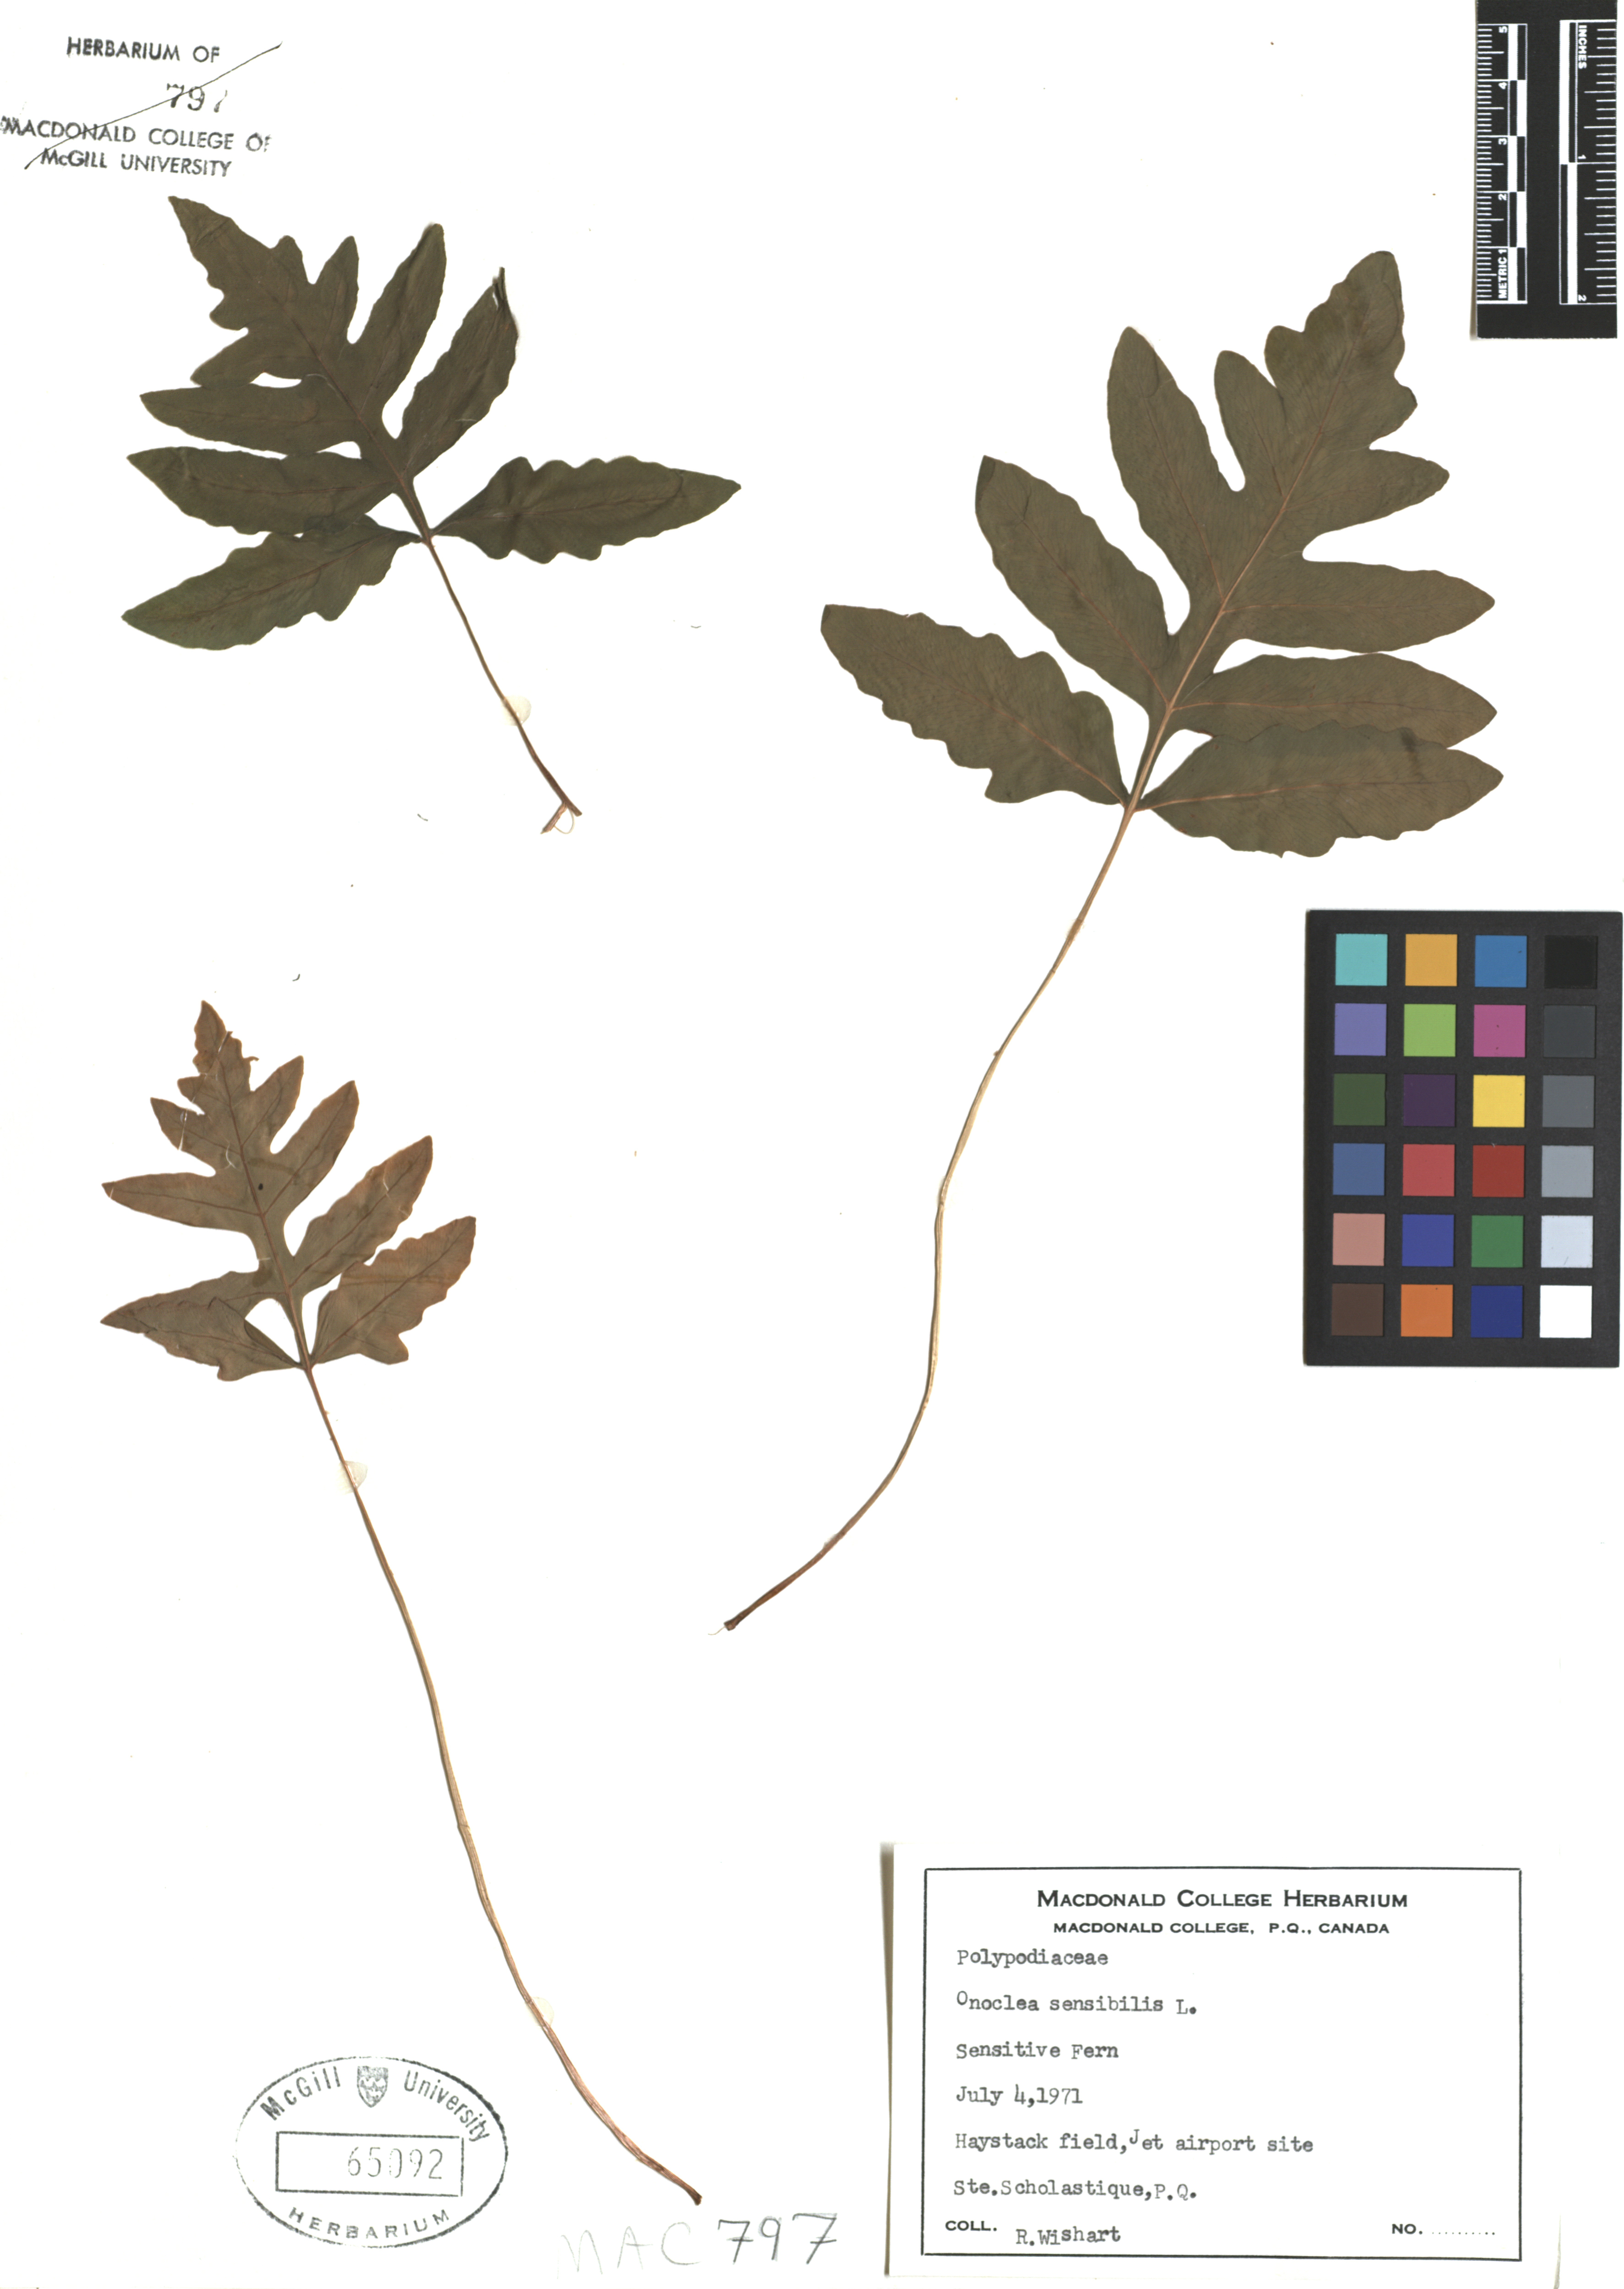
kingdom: Plantae
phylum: Tracheophyta
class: Polypodiopsida
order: Polypodiales
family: Onocleaceae
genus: Onoclea
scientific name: Onoclea sensibilis
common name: Sensitive fern
